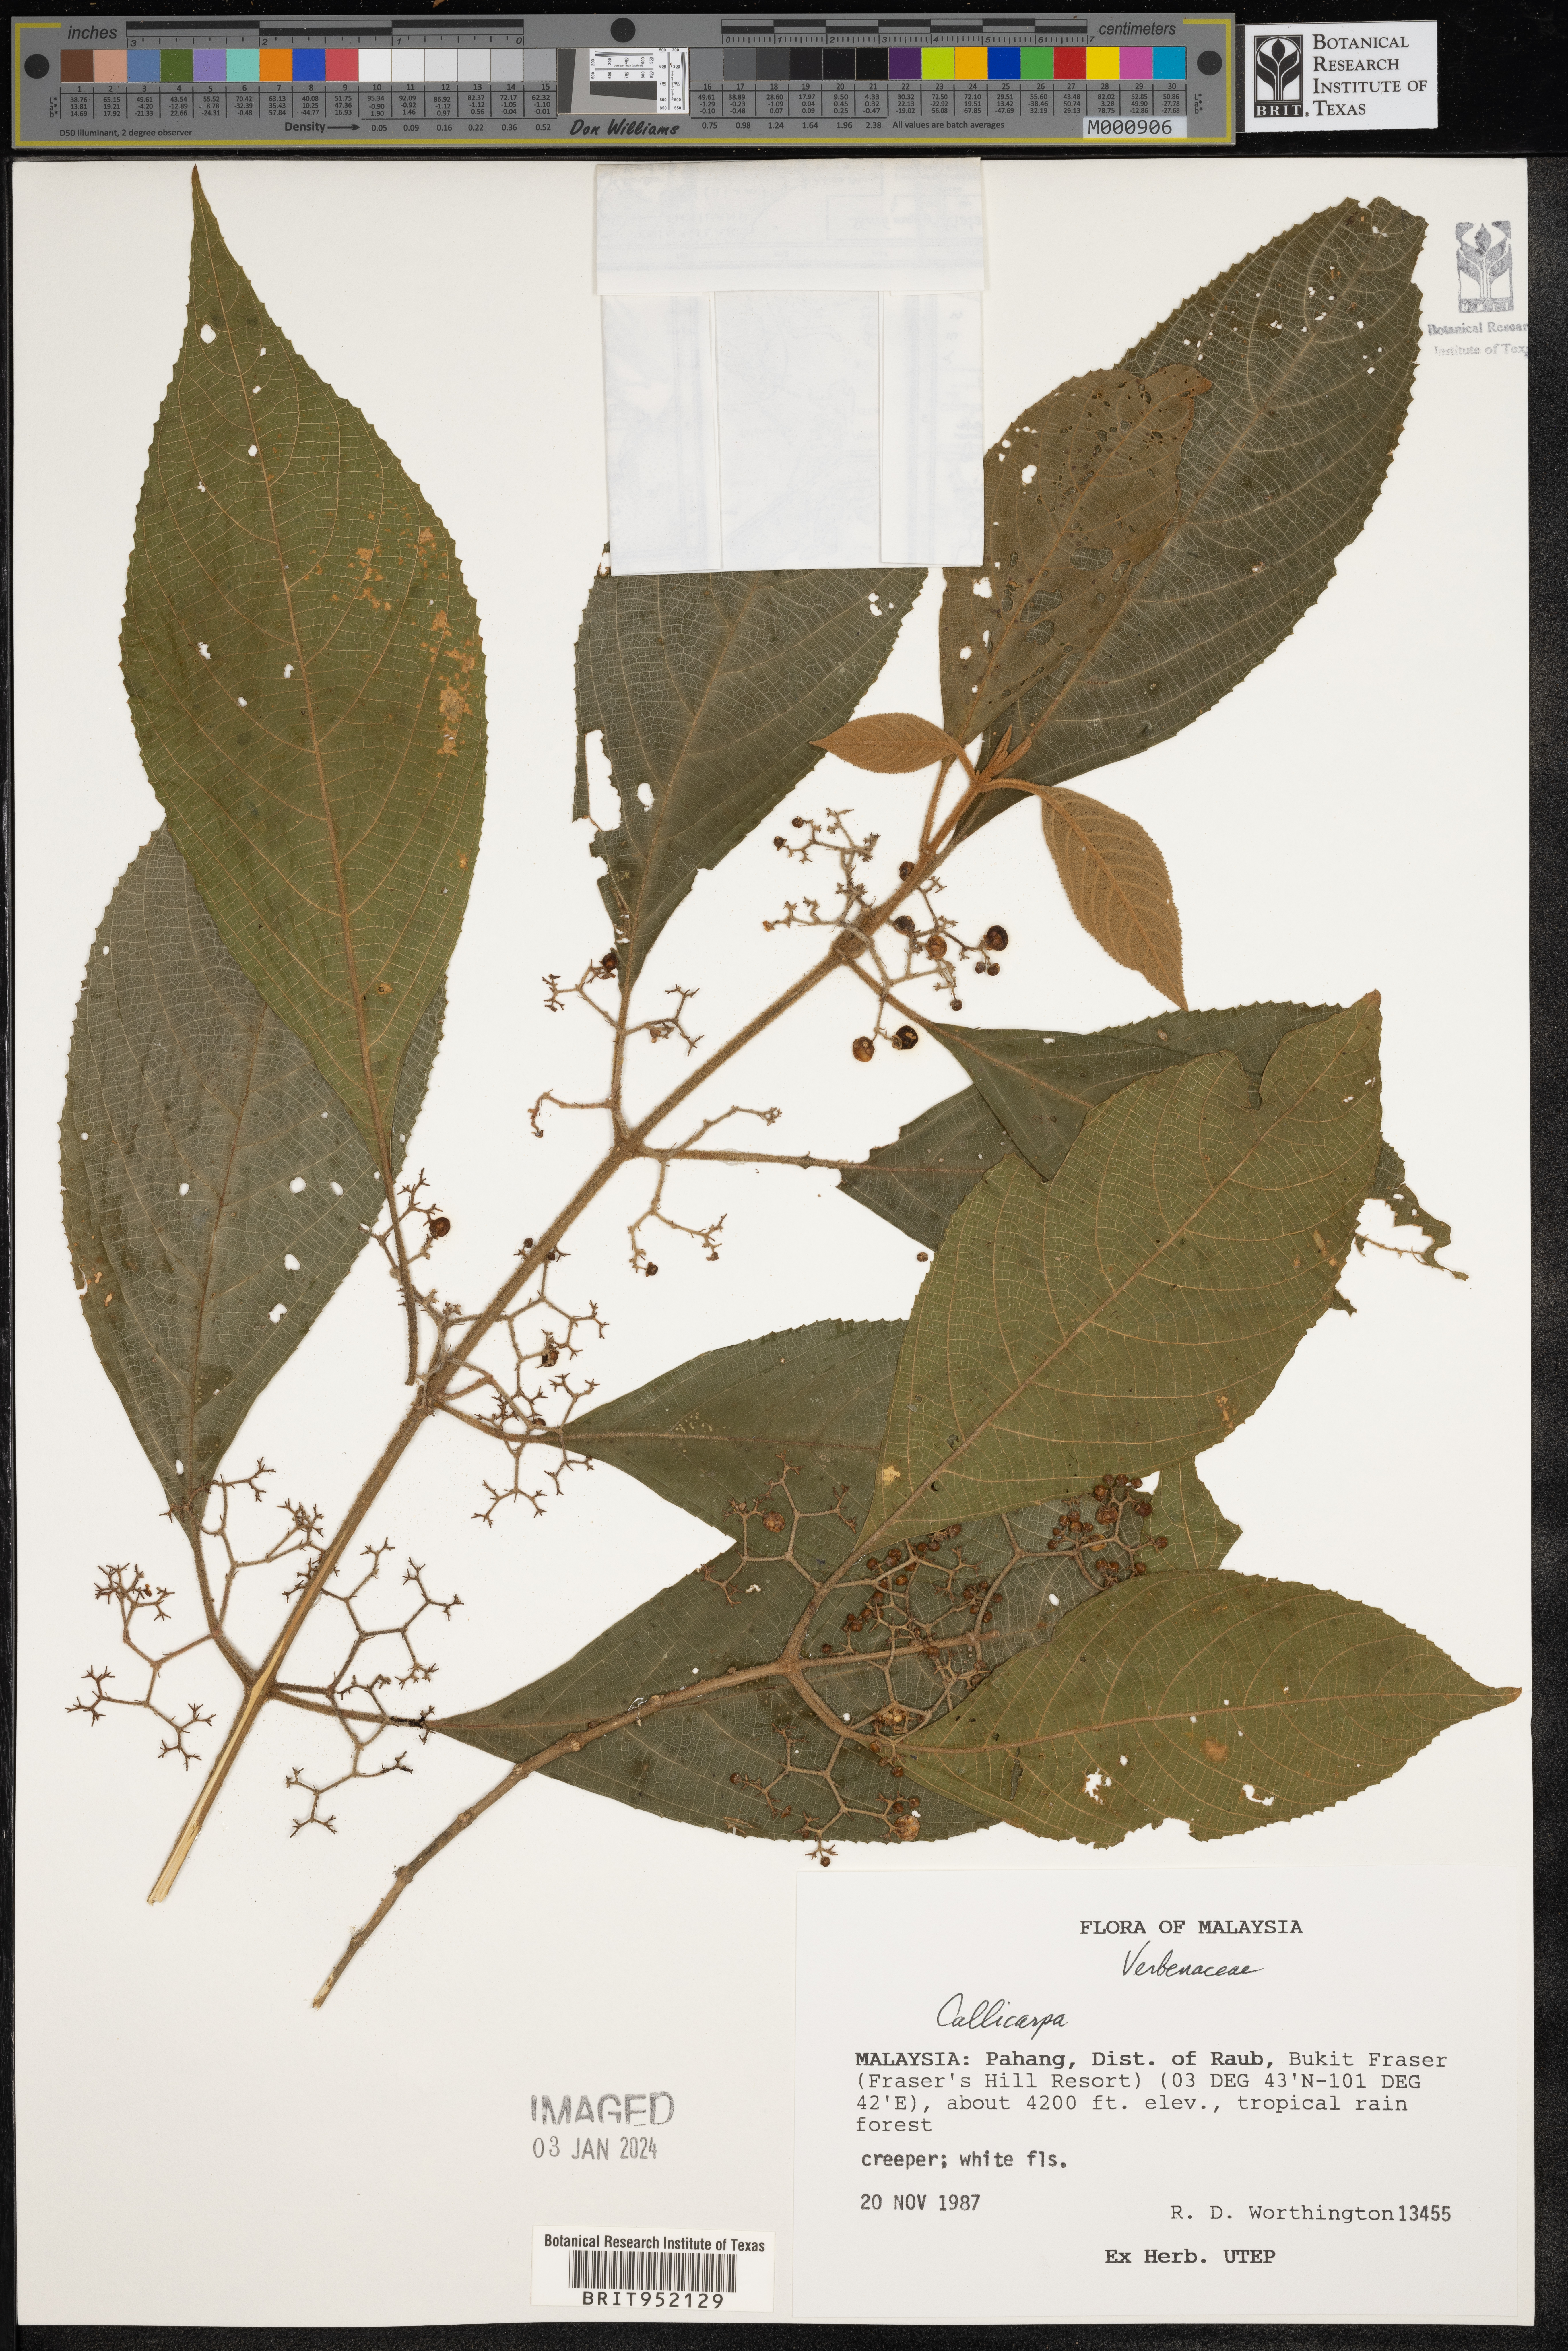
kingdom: Plantae
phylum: Tracheophyta
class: Magnoliopsida
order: Lamiales
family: Lamiaceae
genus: Callicarpa
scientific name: Callicarpa
